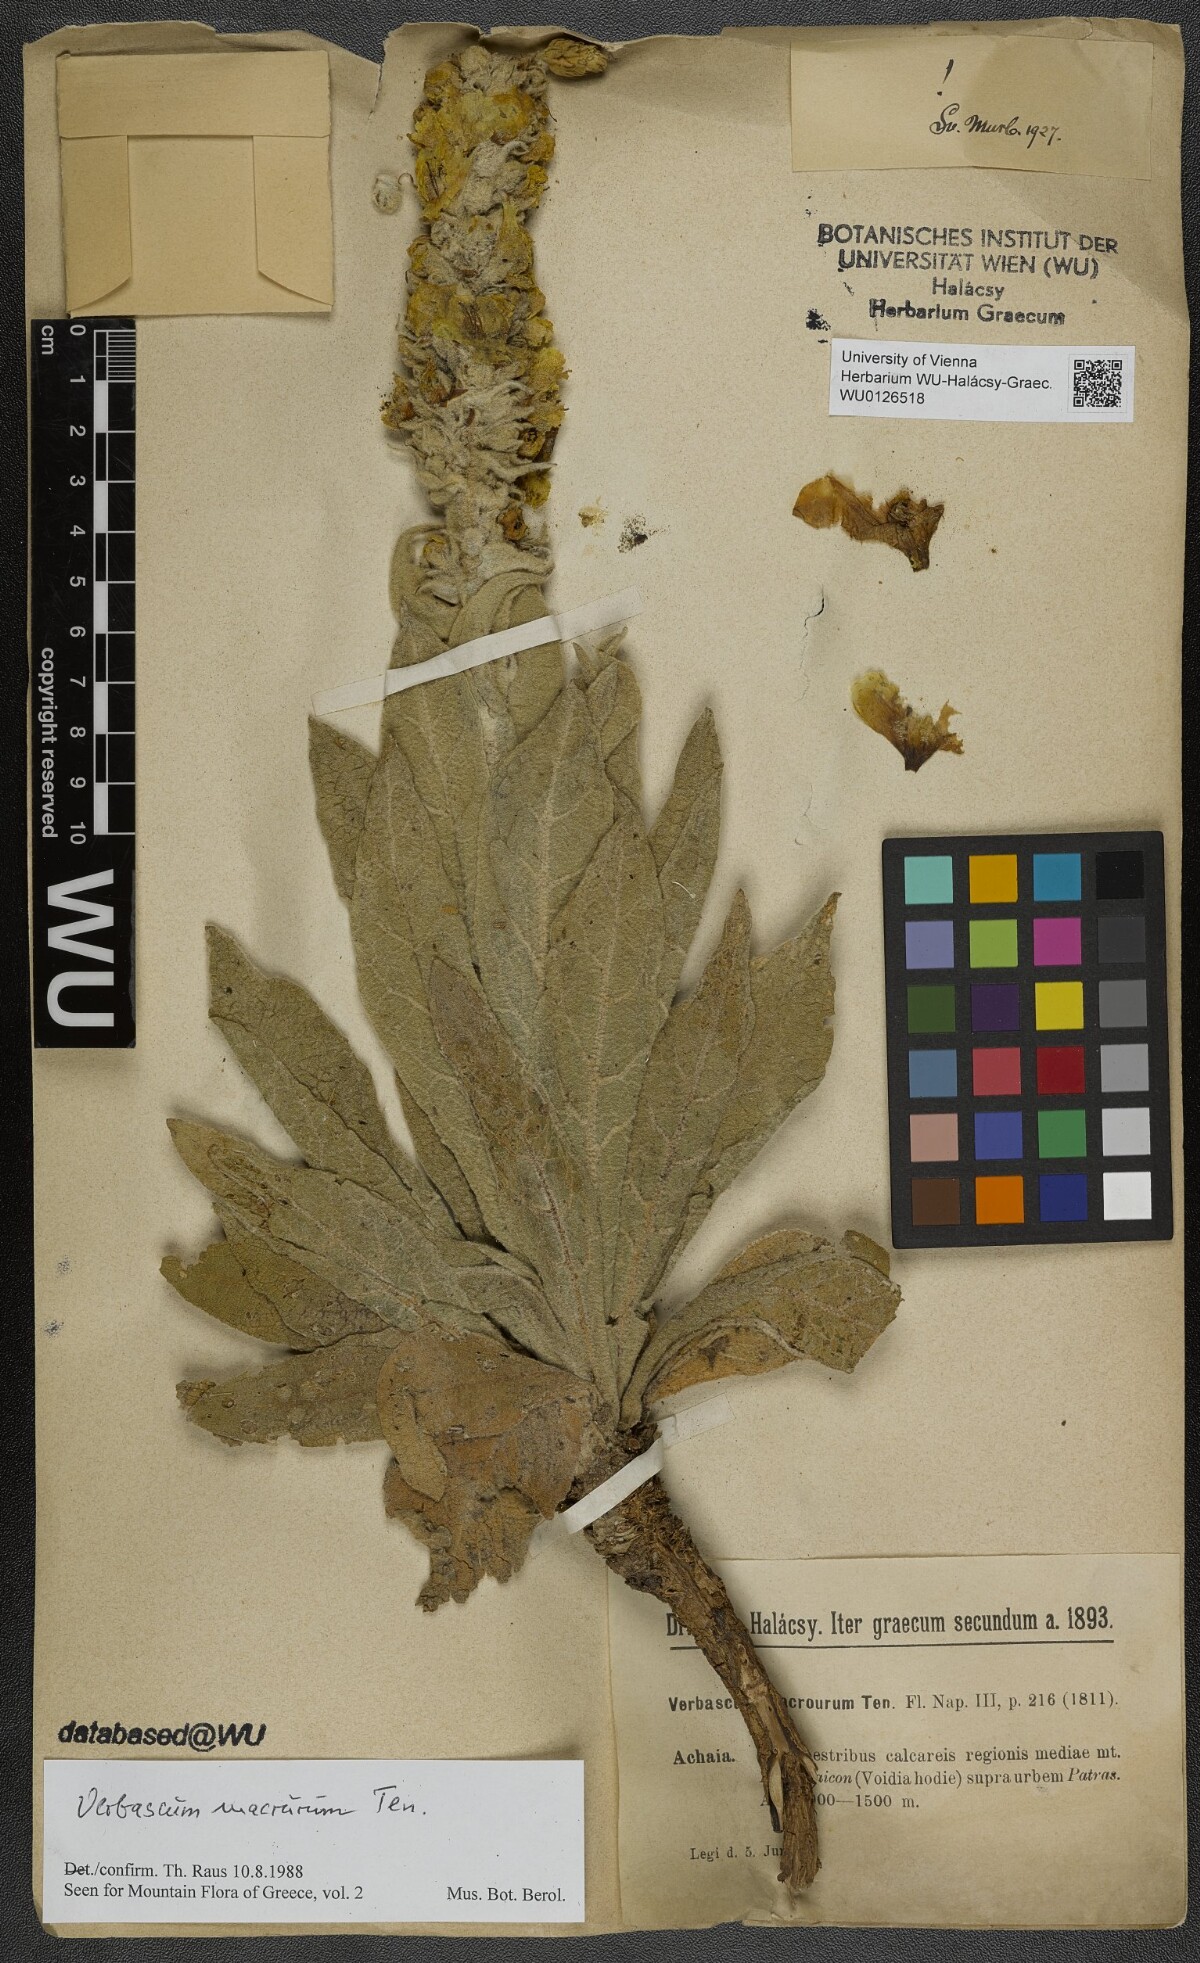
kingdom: Plantae
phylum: Tracheophyta
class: Magnoliopsida
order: Lamiales
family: Scrophulariaceae
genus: Verbascum
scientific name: Verbascum macrurum
